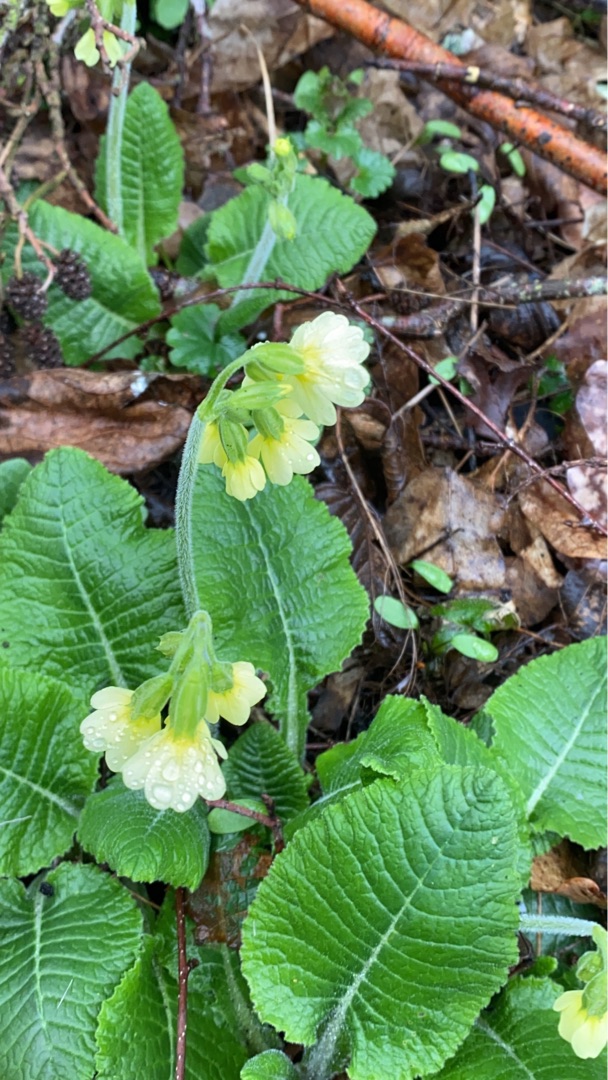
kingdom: Plantae
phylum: Tracheophyta
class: Magnoliopsida
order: Ericales
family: Primulaceae
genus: Primula
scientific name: Primula elatior
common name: Fladkravet kodriver
